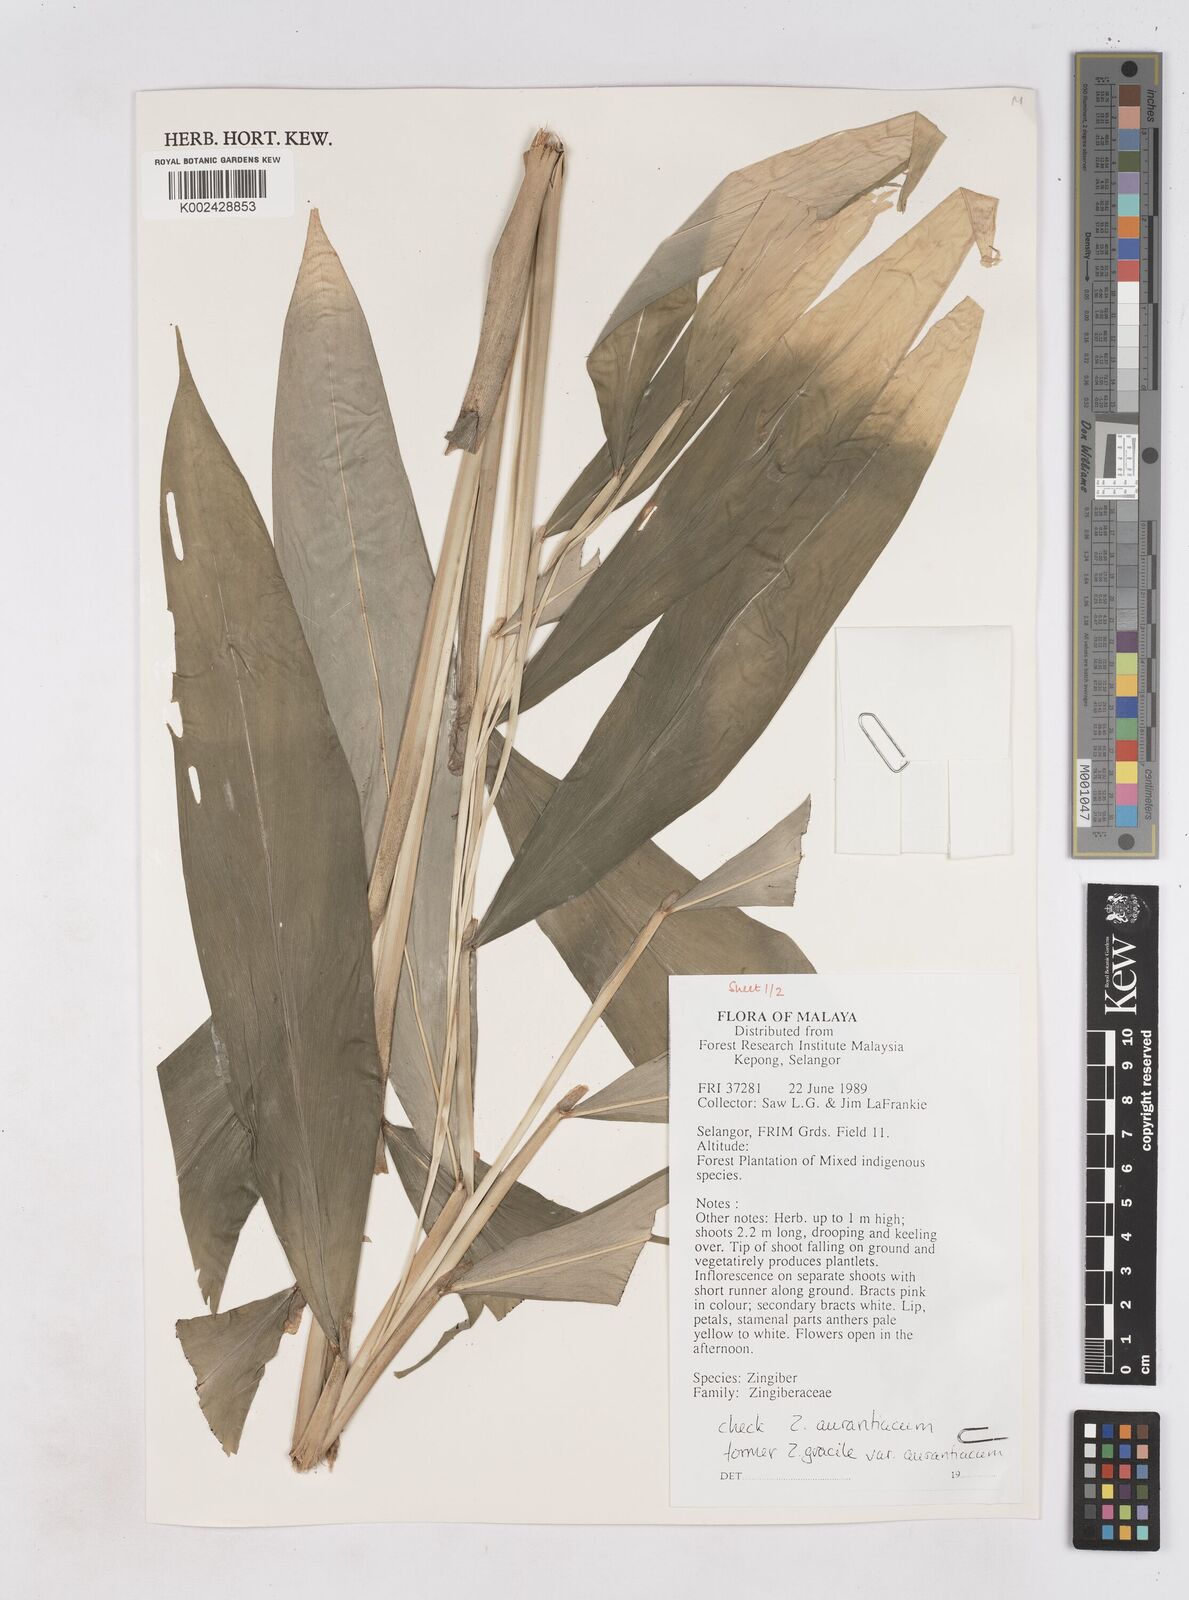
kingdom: Plantae
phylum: Tracheophyta
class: Liliopsida
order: Zingiberales
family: Zingiberaceae
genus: Zingiber
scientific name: Zingiber gracile
